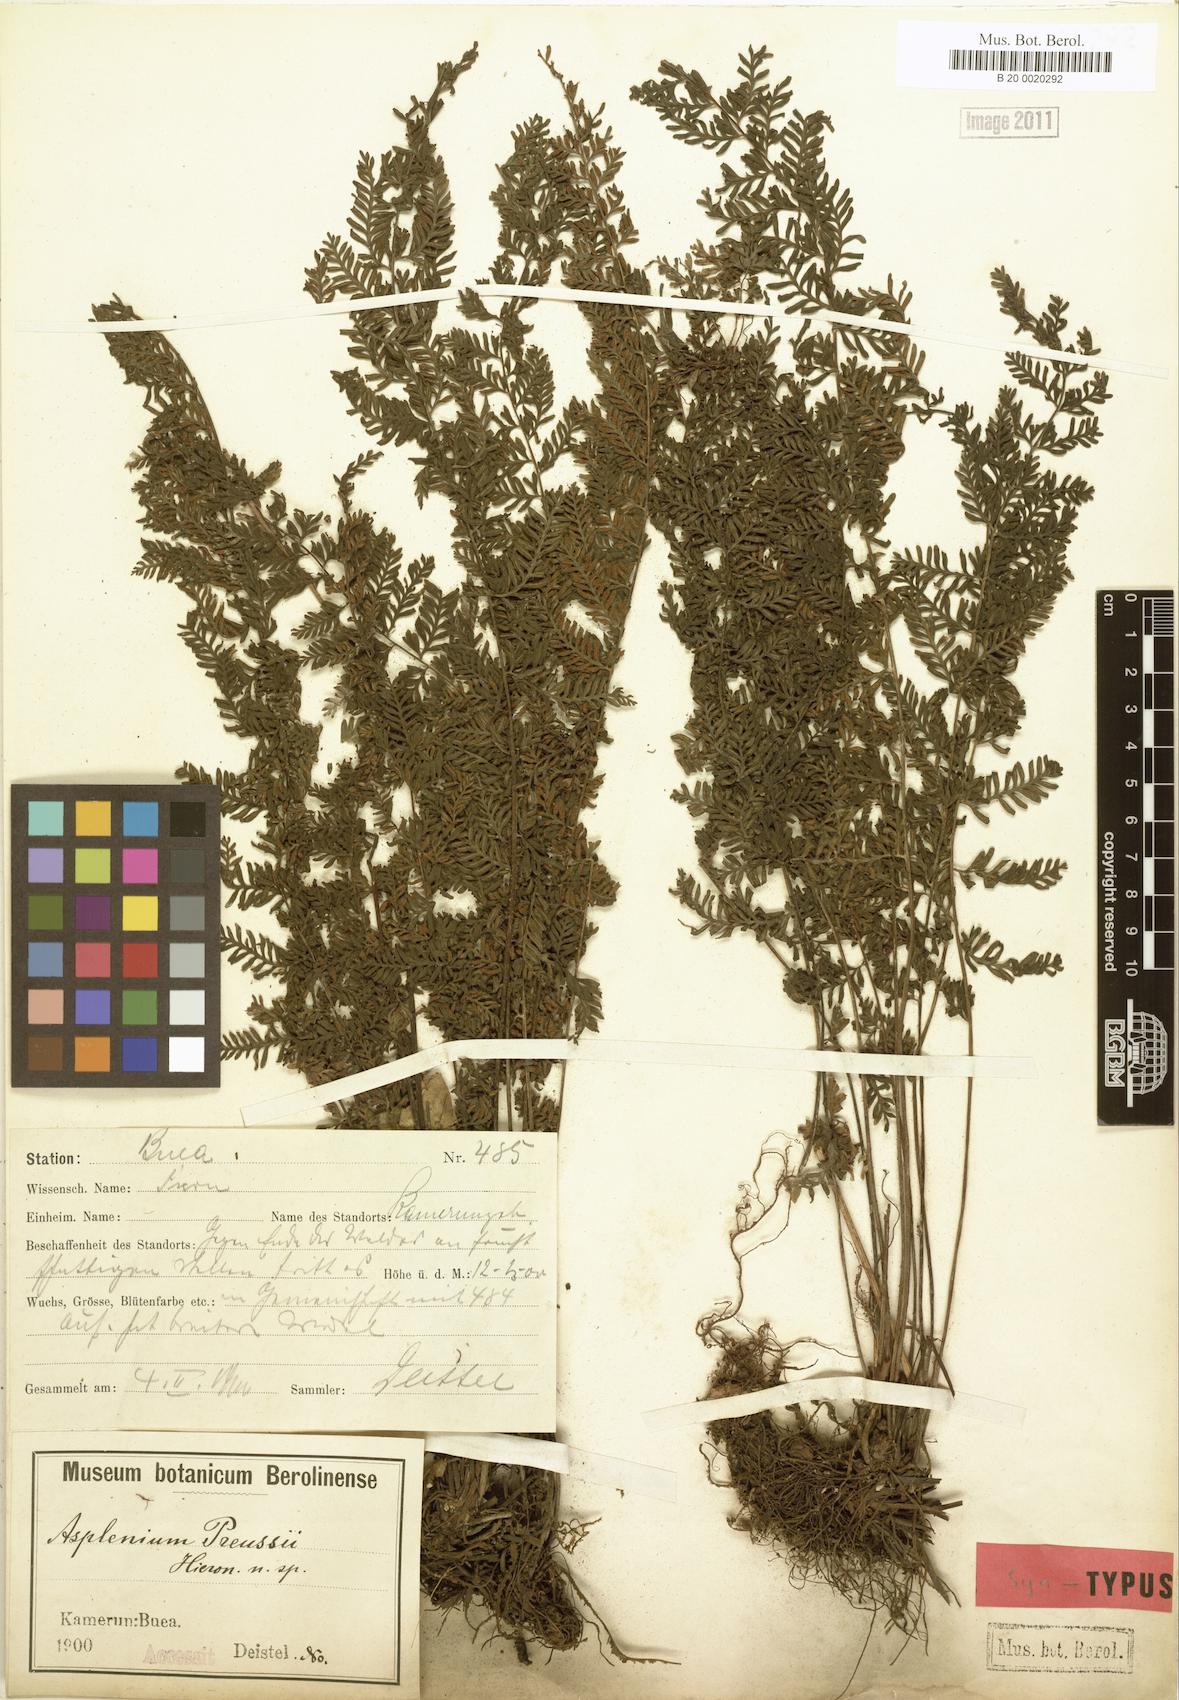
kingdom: Plantae
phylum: Tracheophyta
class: Polypodiopsida
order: Polypodiales
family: Aspleniaceae
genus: Asplenium
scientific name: Asplenium preussii
